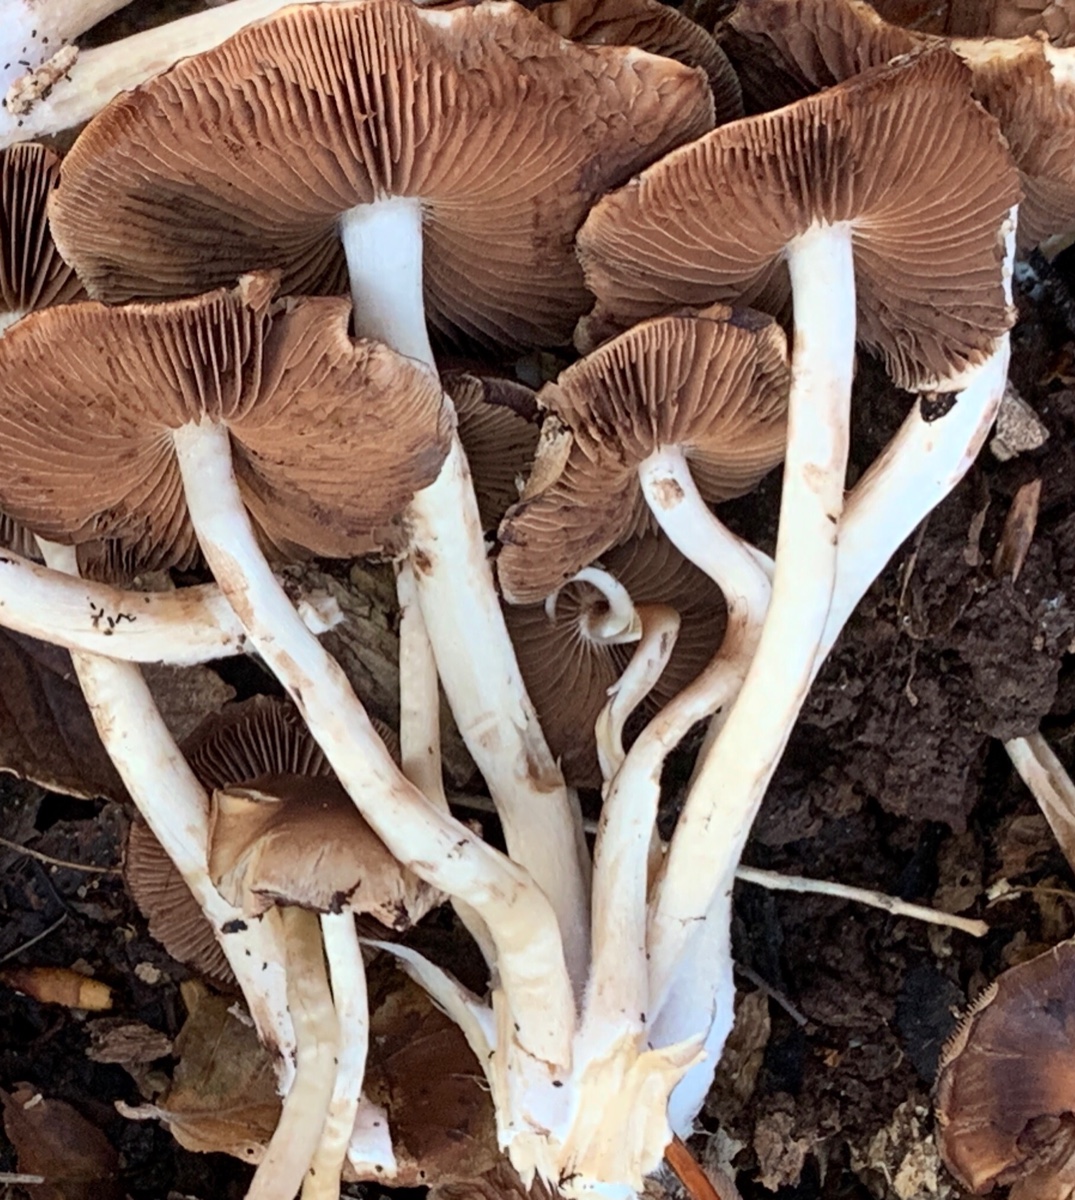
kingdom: Fungi
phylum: Basidiomycota
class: Agaricomycetes
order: Agaricales
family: Psathyrellaceae
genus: Psathyrella
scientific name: Psathyrella piluliformis
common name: lysstokket mørkhat
